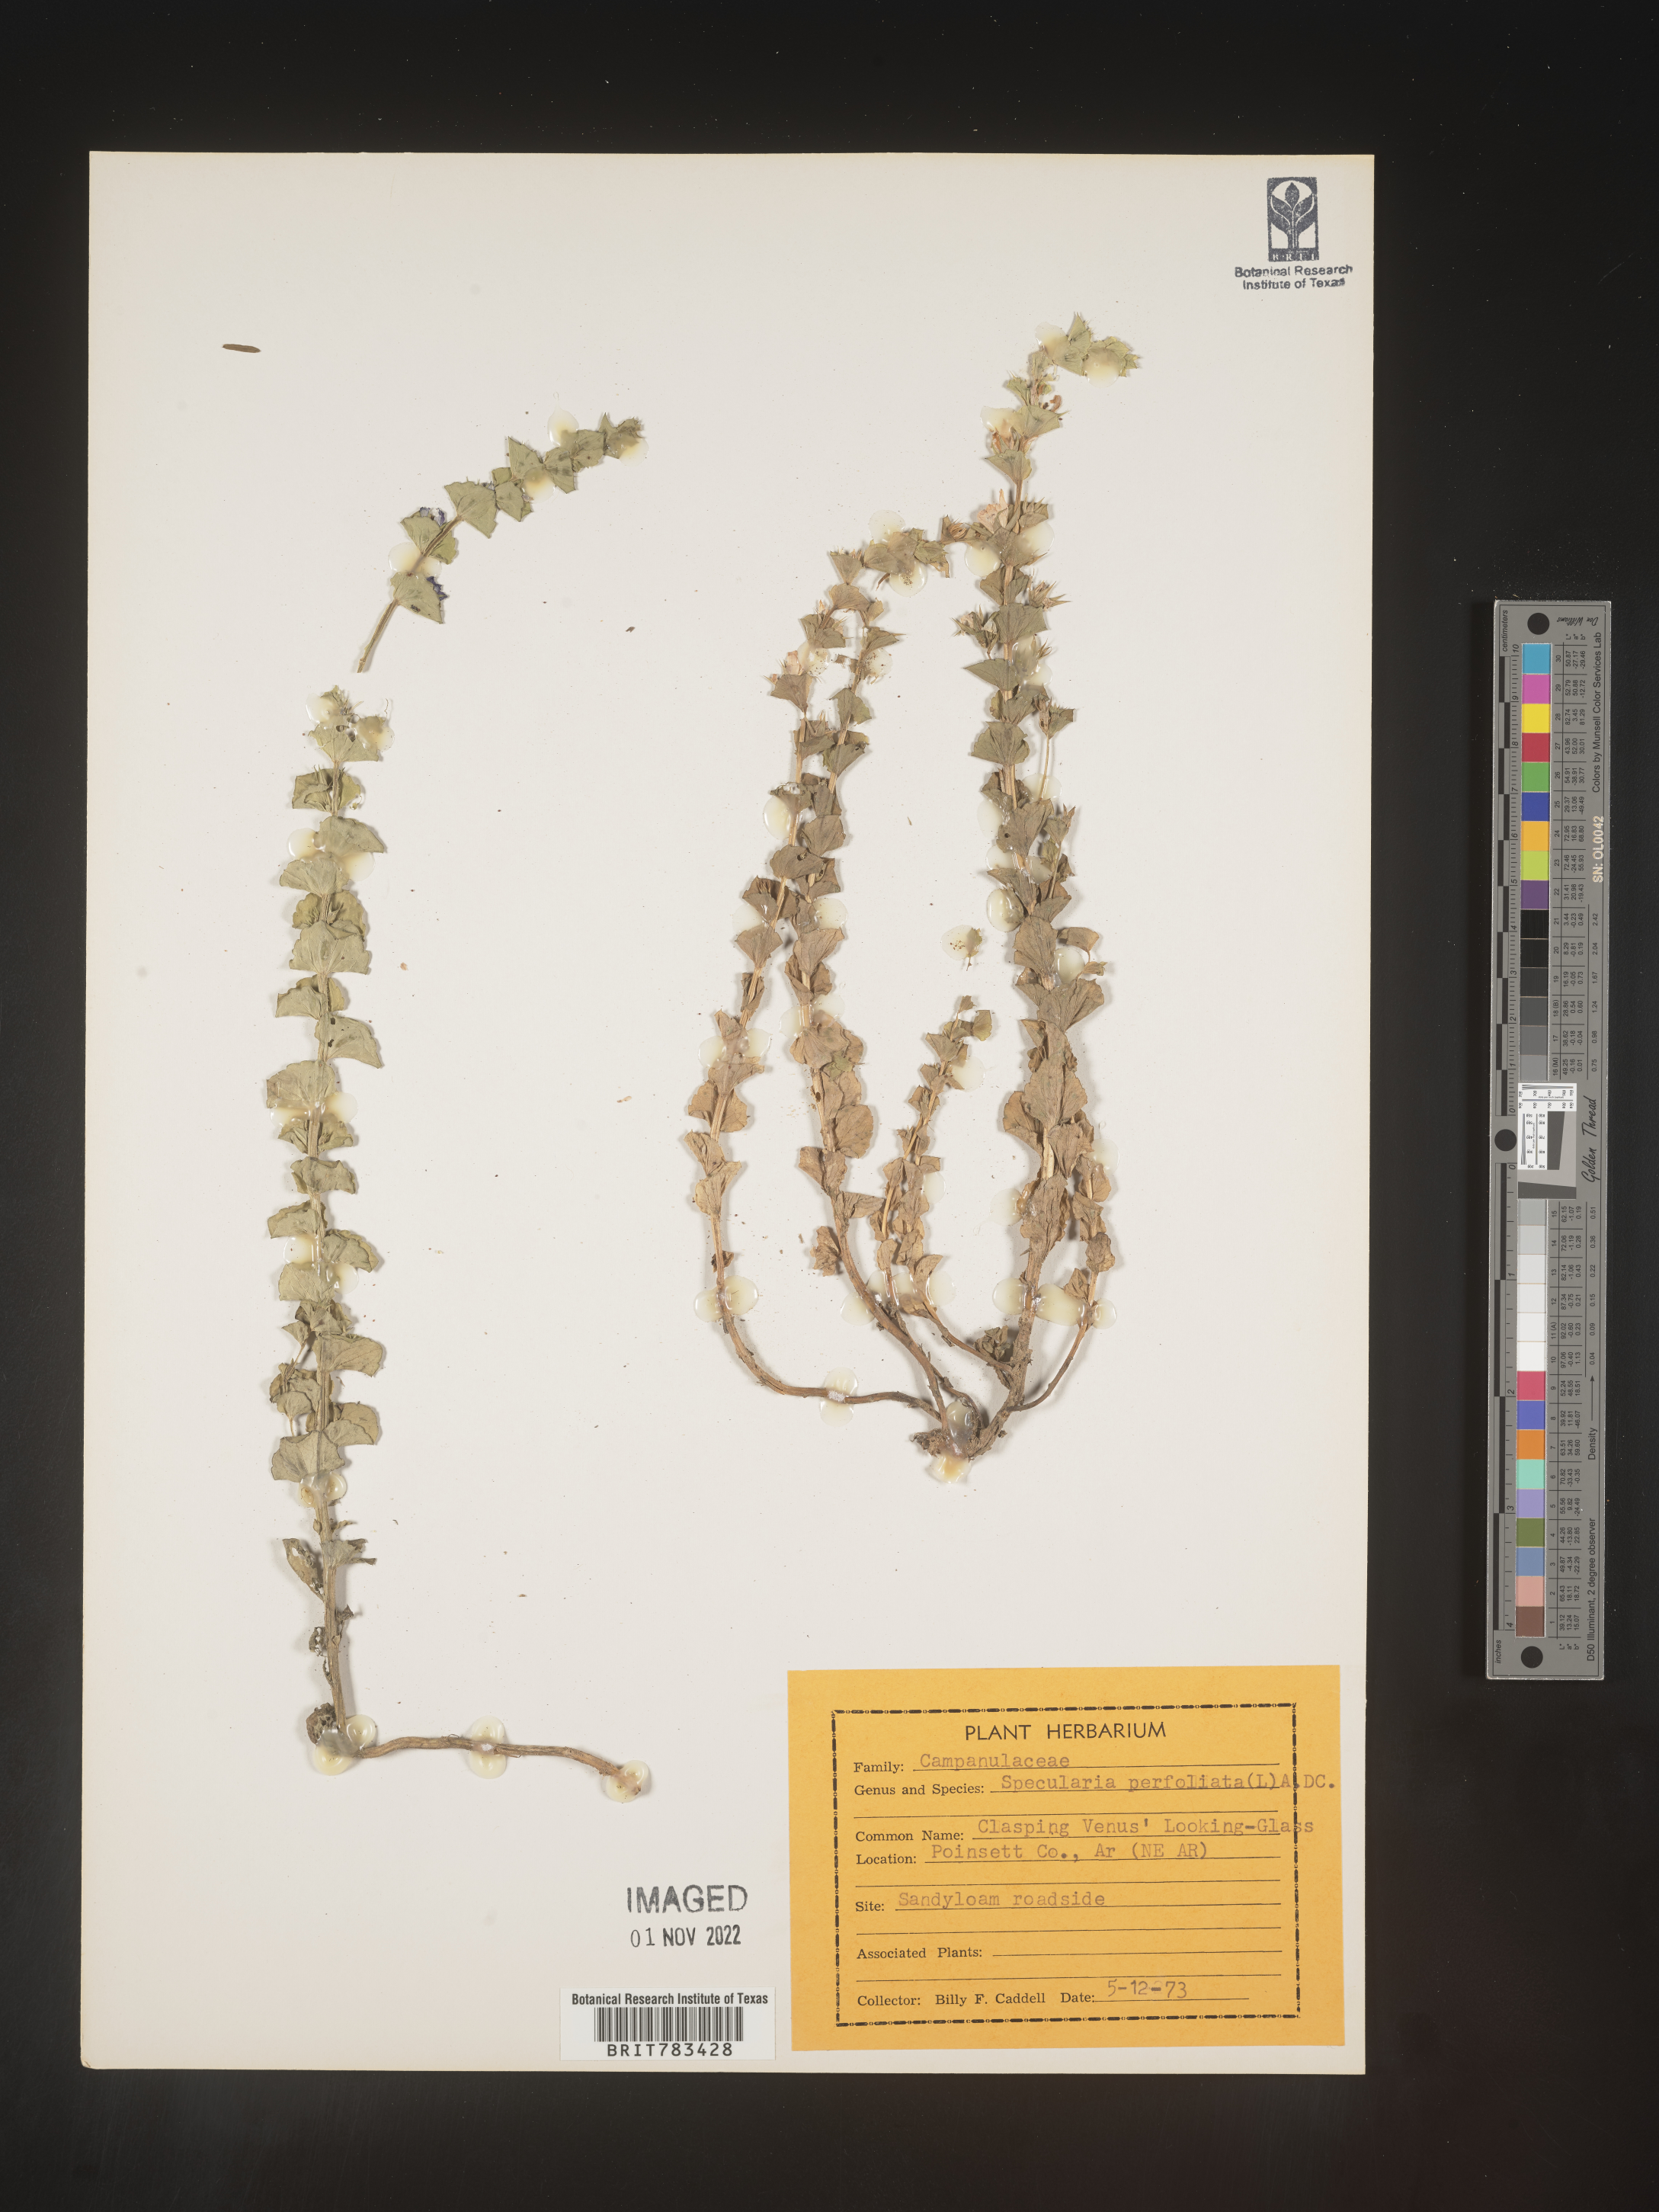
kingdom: Plantae
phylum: Tracheophyta
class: Magnoliopsida
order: Asterales
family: Campanulaceae
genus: Triodanis
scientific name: Triodanis perfoliata
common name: Clasping venus' looking-glass
